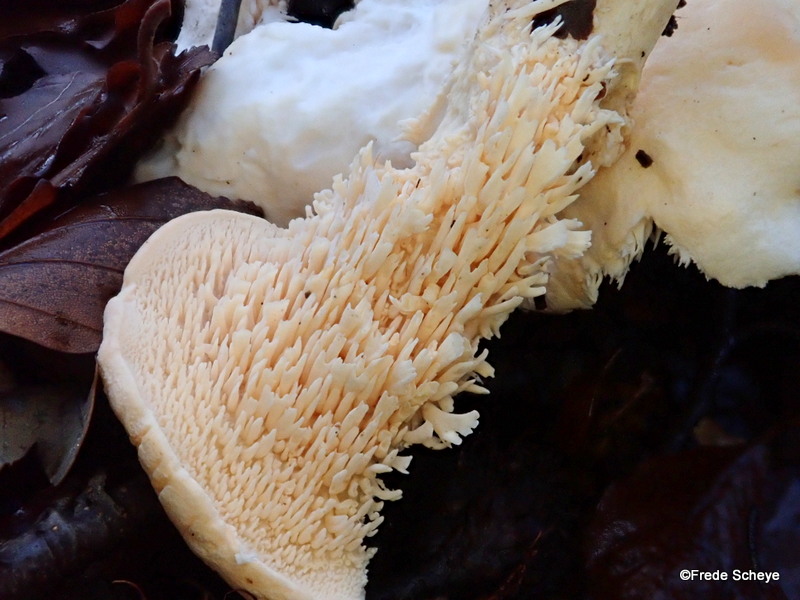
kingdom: Fungi
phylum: Basidiomycota
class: Agaricomycetes
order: Cantharellales
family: Hydnaceae
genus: Hydnum
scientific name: Hydnum repandum
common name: almindelig pigsvamp
